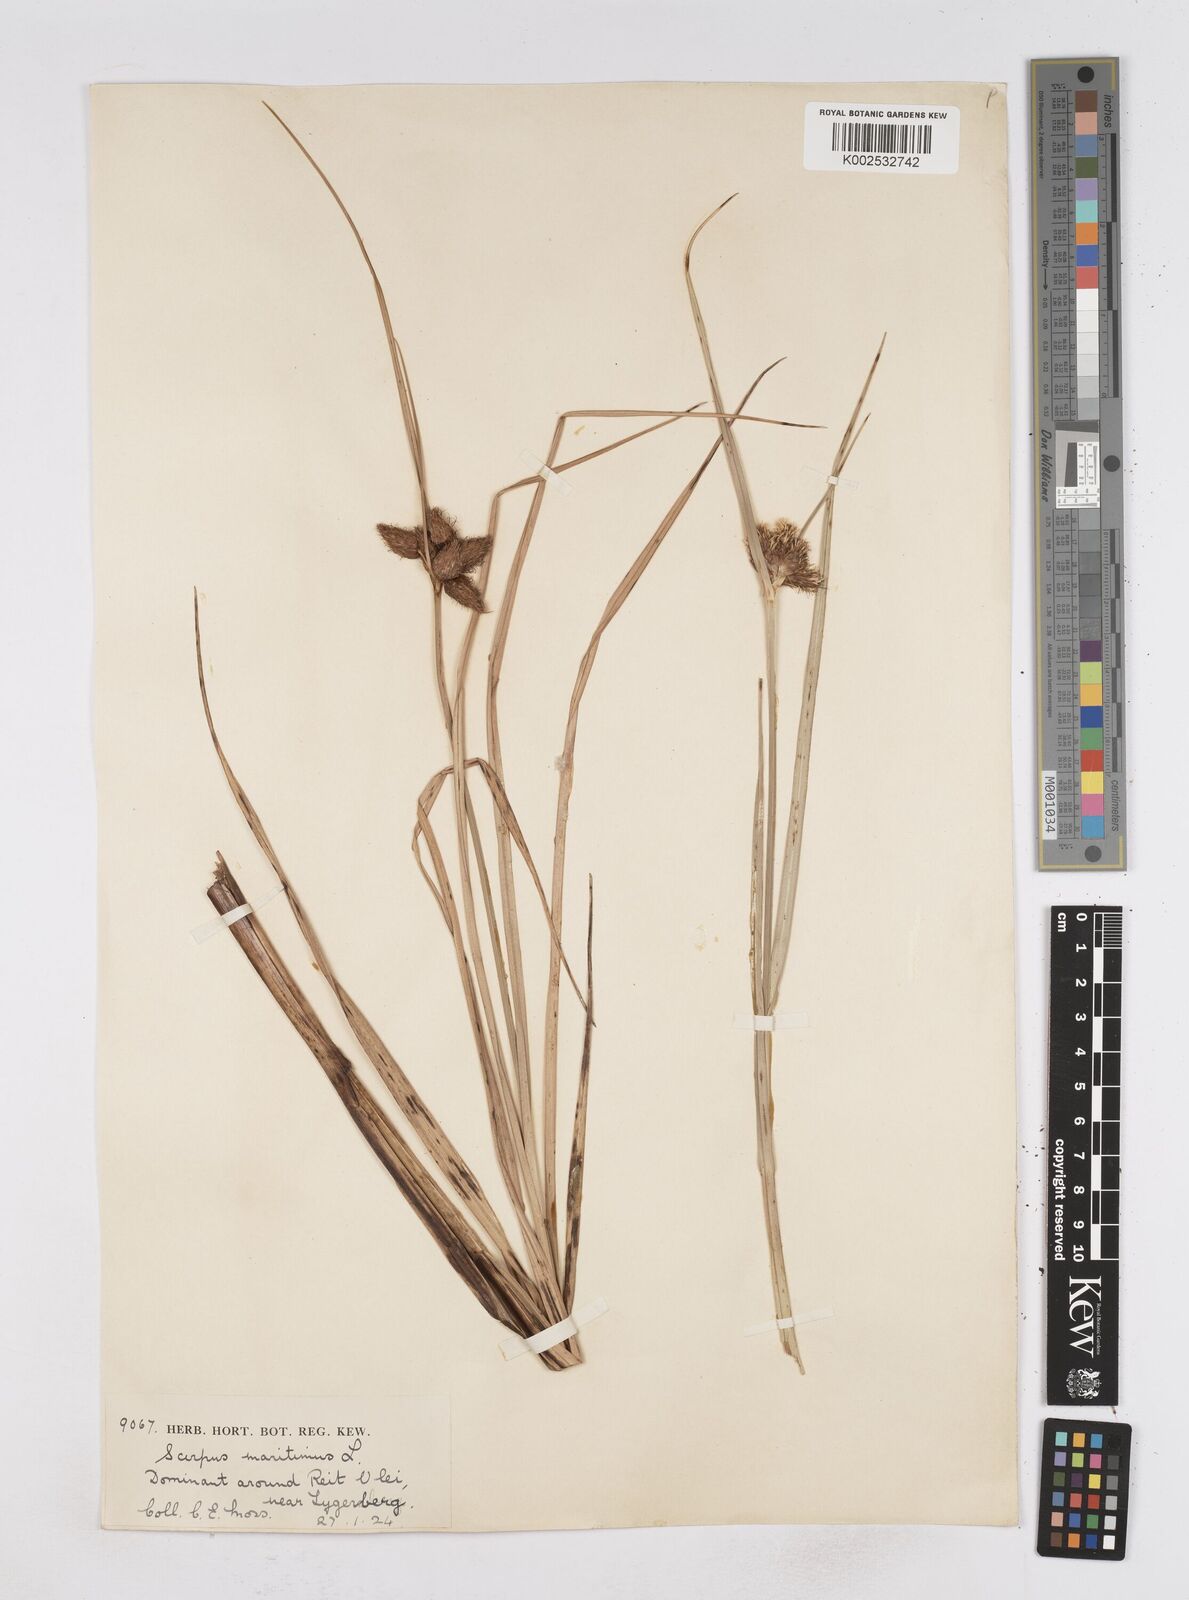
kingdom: Plantae
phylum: Tracheophyta
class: Liliopsida
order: Poales
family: Cyperaceae
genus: Bolboschoenus
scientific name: Bolboschoenus maritimus
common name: Sea club-rush
